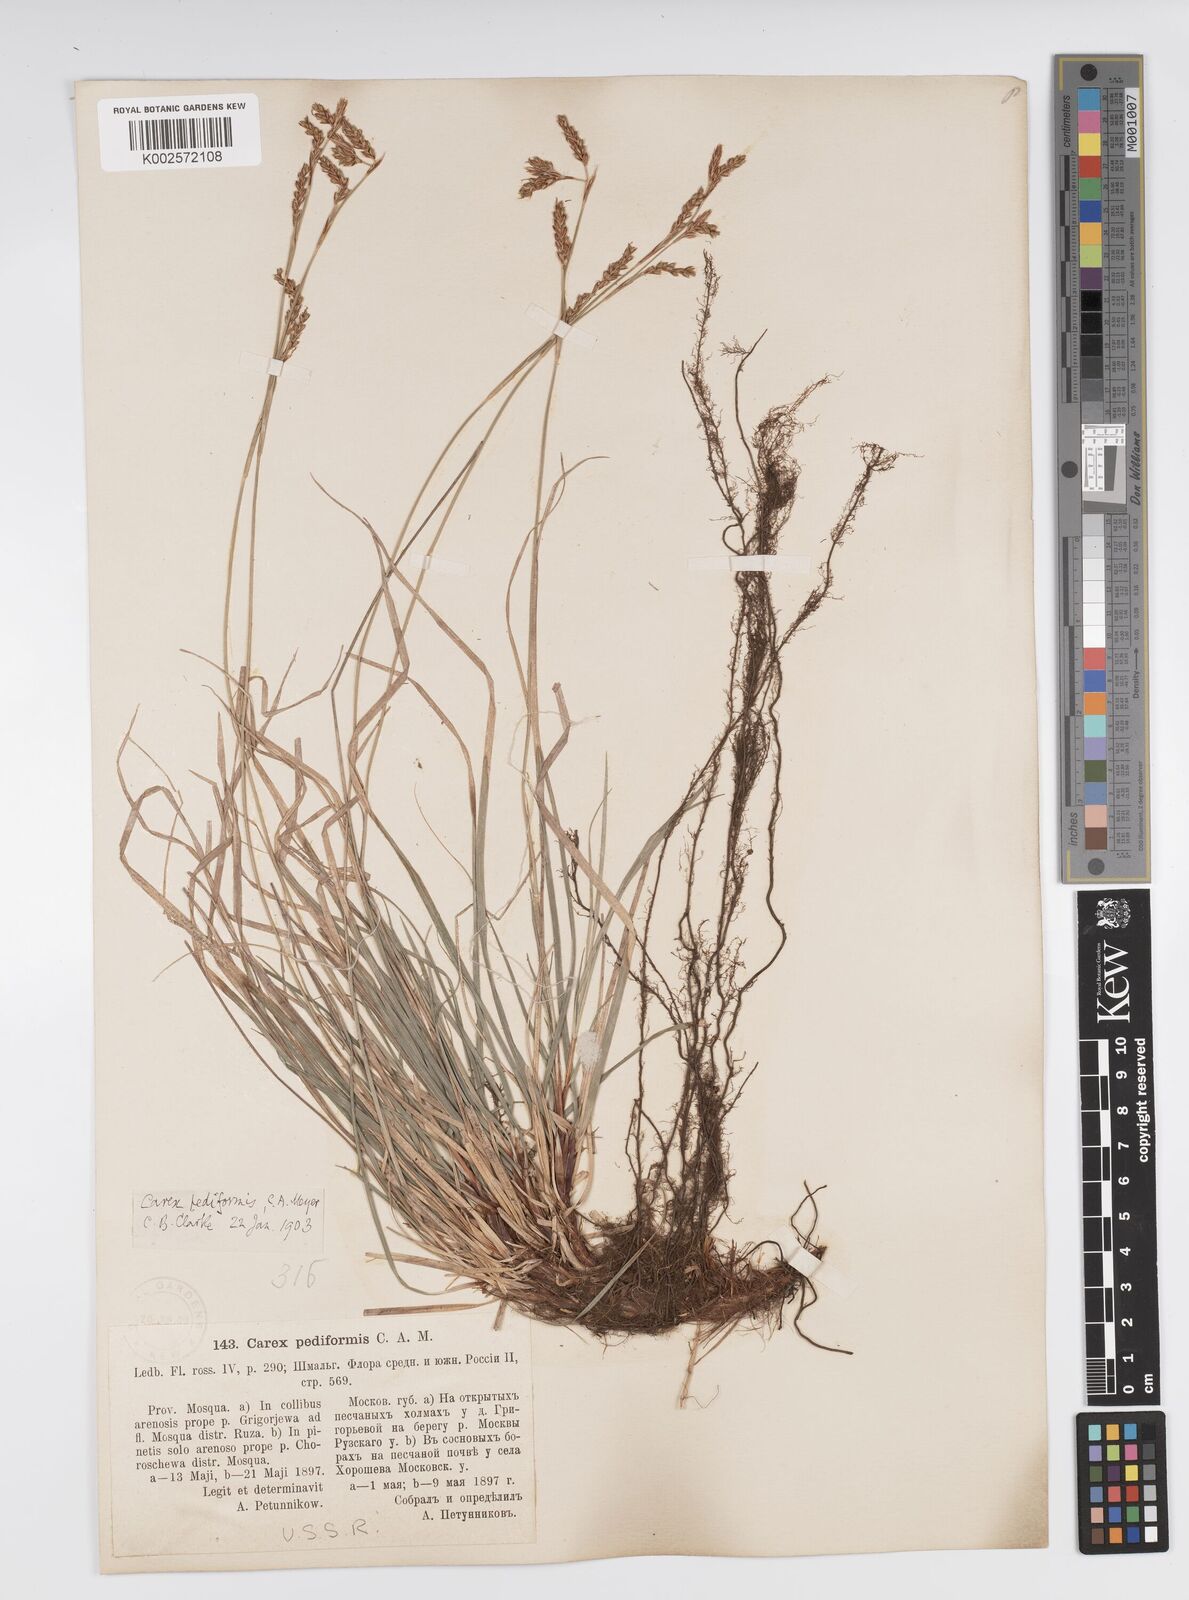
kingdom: Plantae
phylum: Tracheophyta
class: Liliopsida
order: Poales
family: Cyperaceae
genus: Carex
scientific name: Carex pediformis
